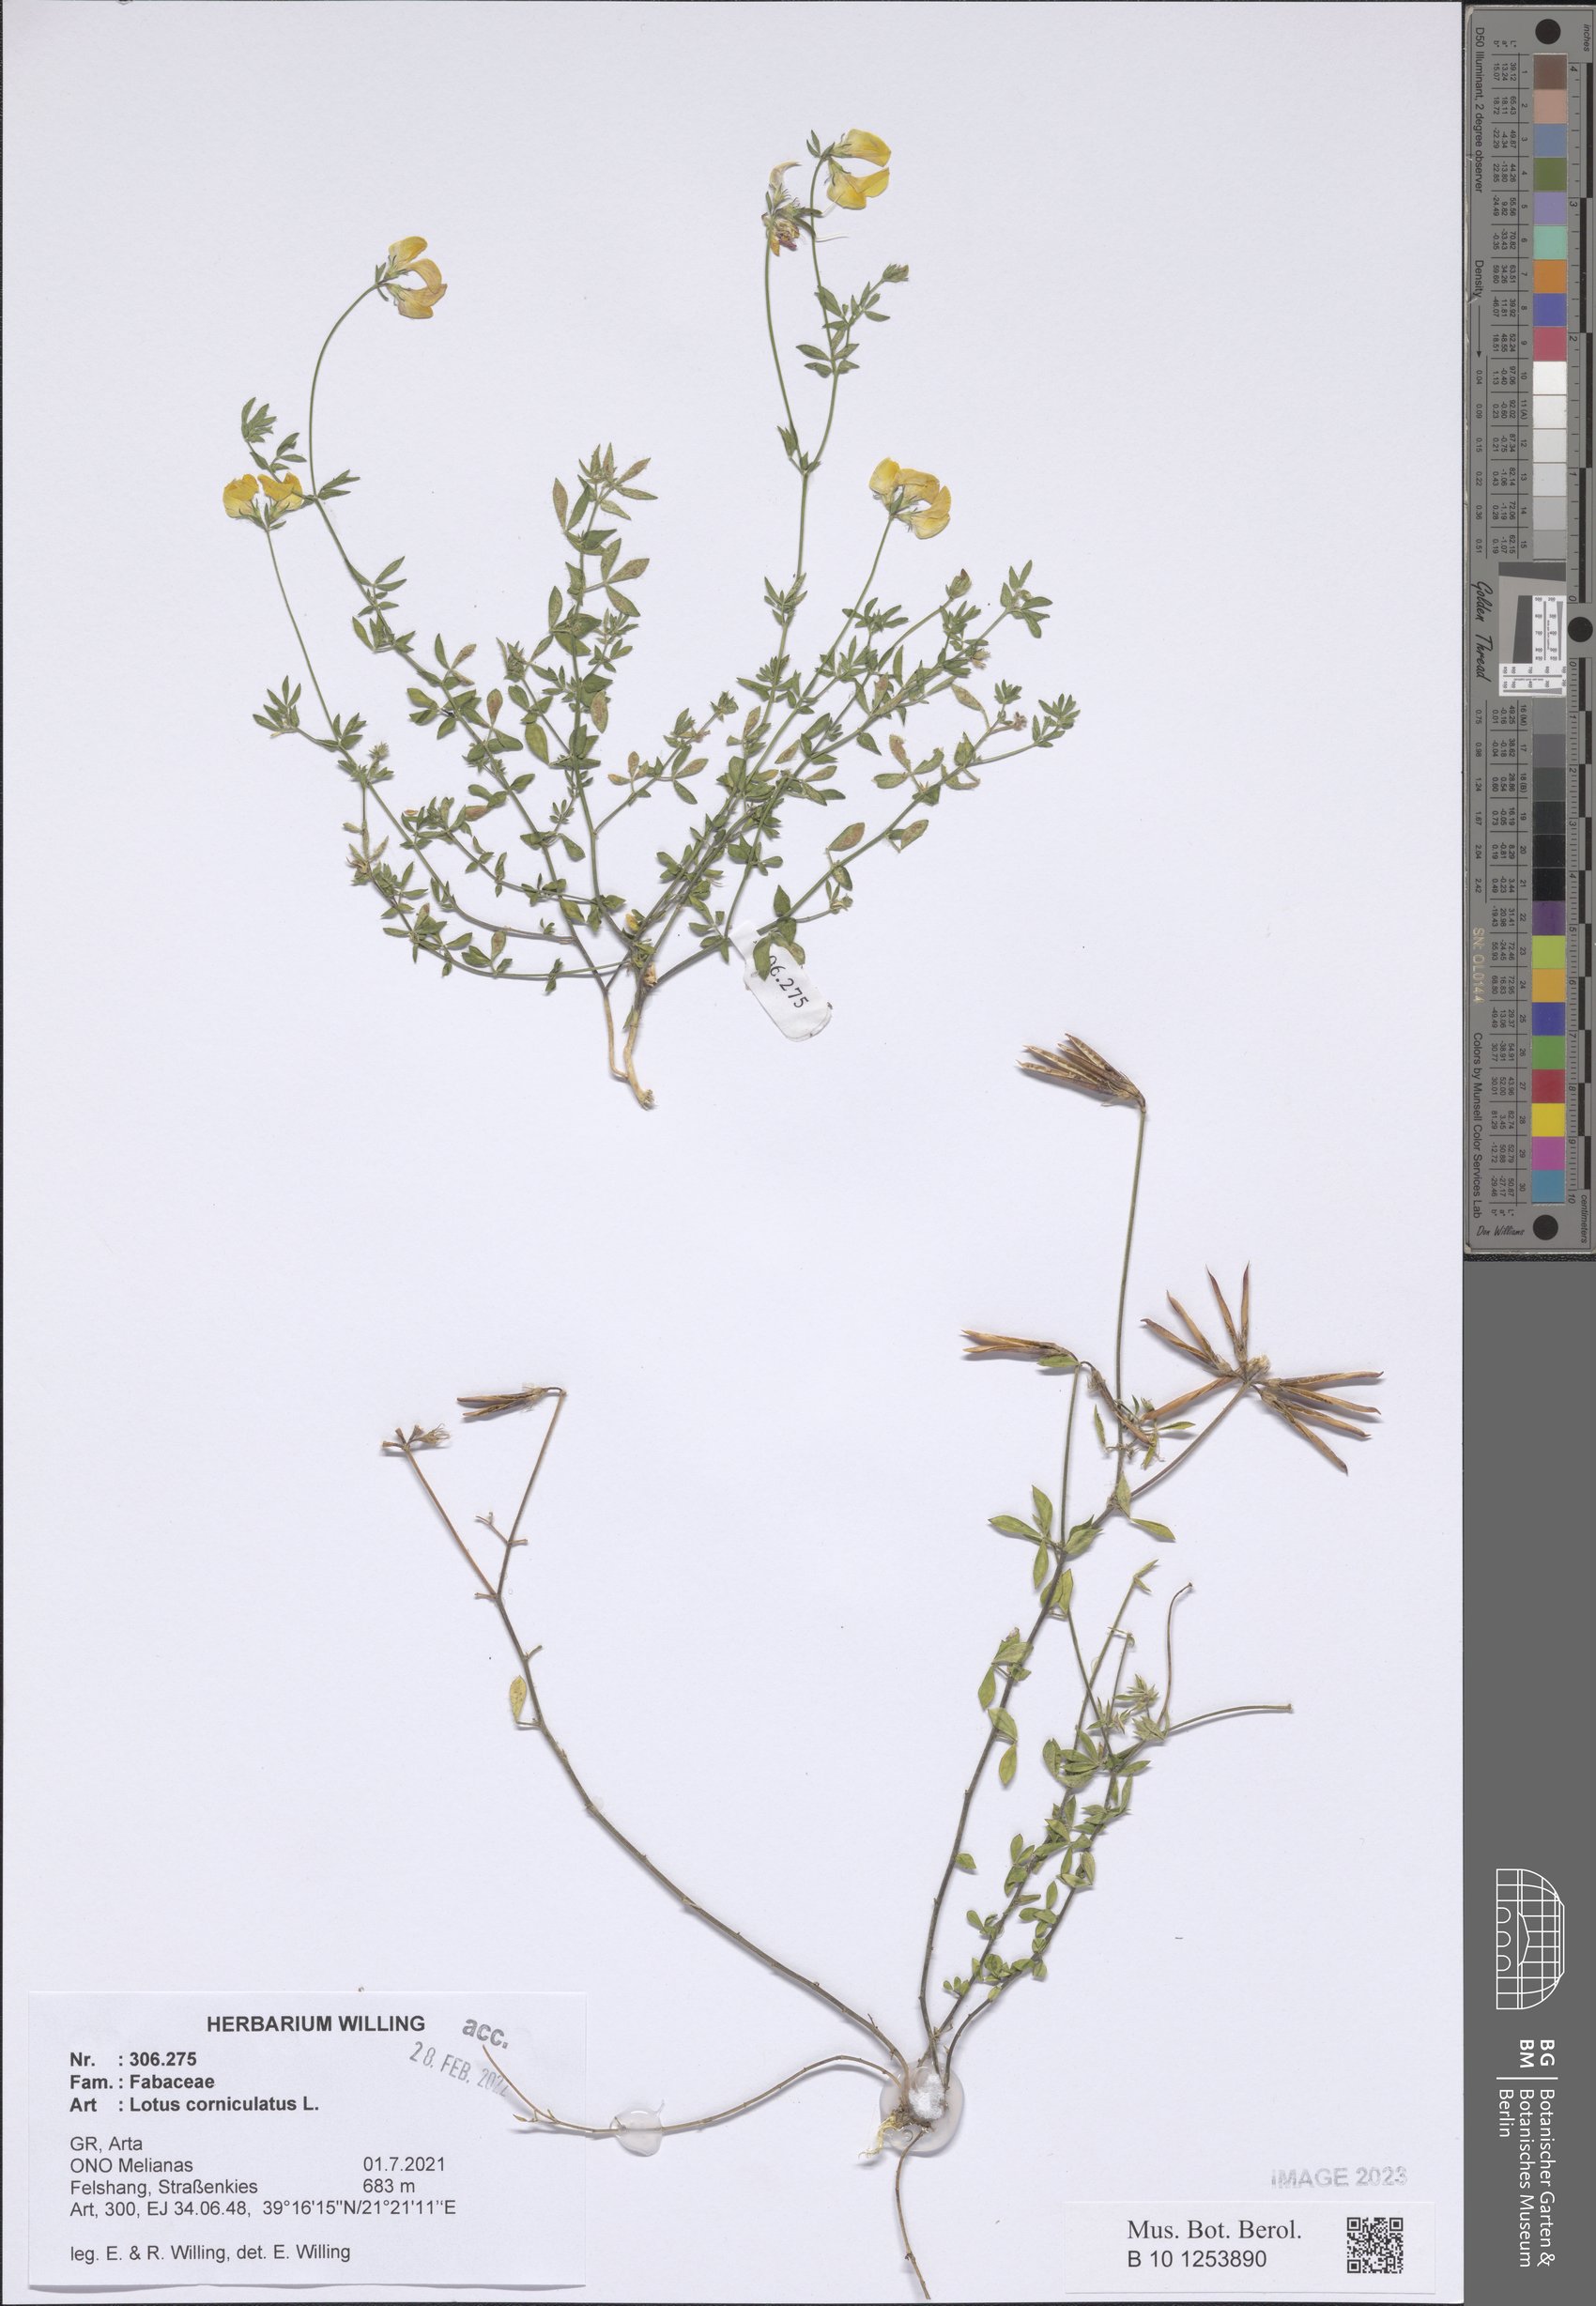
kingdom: Plantae
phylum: Tracheophyta
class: Magnoliopsida
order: Fabales
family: Fabaceae
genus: Lotus
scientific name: Lotus corniculatus
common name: Common bird's-foot-trefoil
